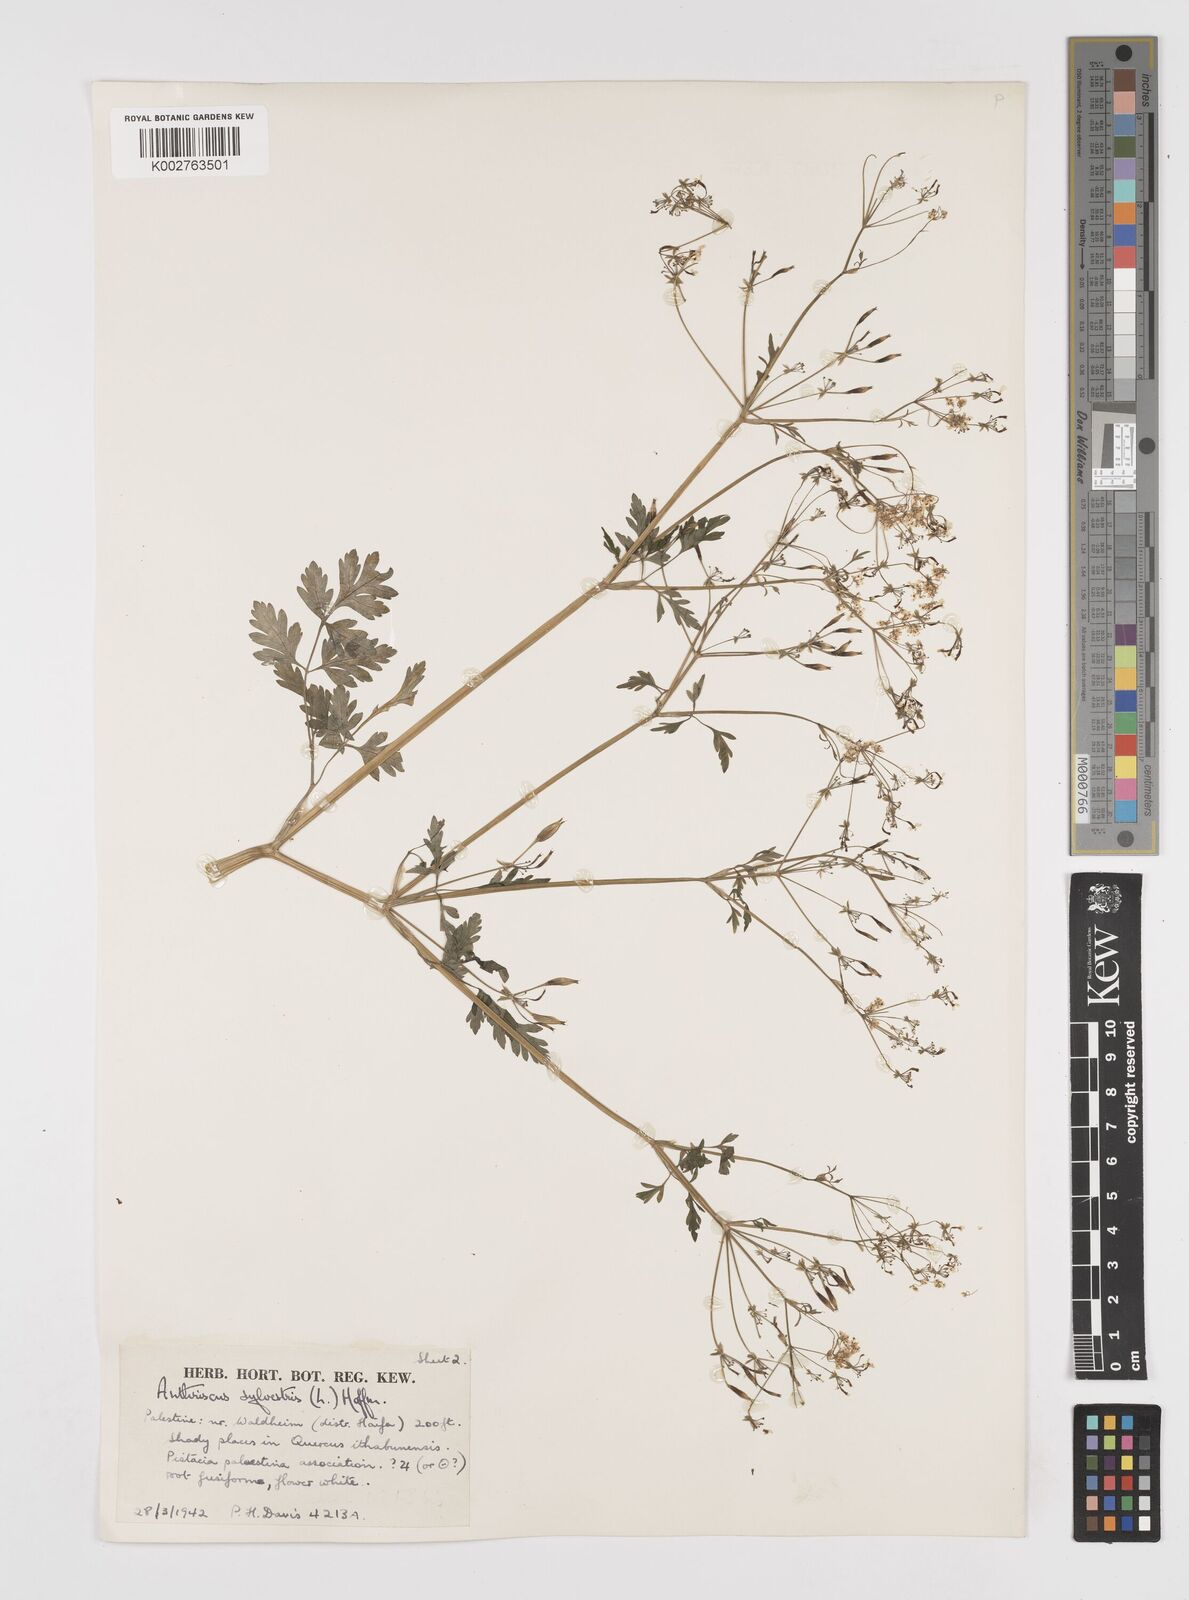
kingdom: Plantae
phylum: Tracheophyta
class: Magnoliopsida
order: Apiales
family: Apiaceae
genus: Anthriscus
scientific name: Anthriscus lamprocarpa
